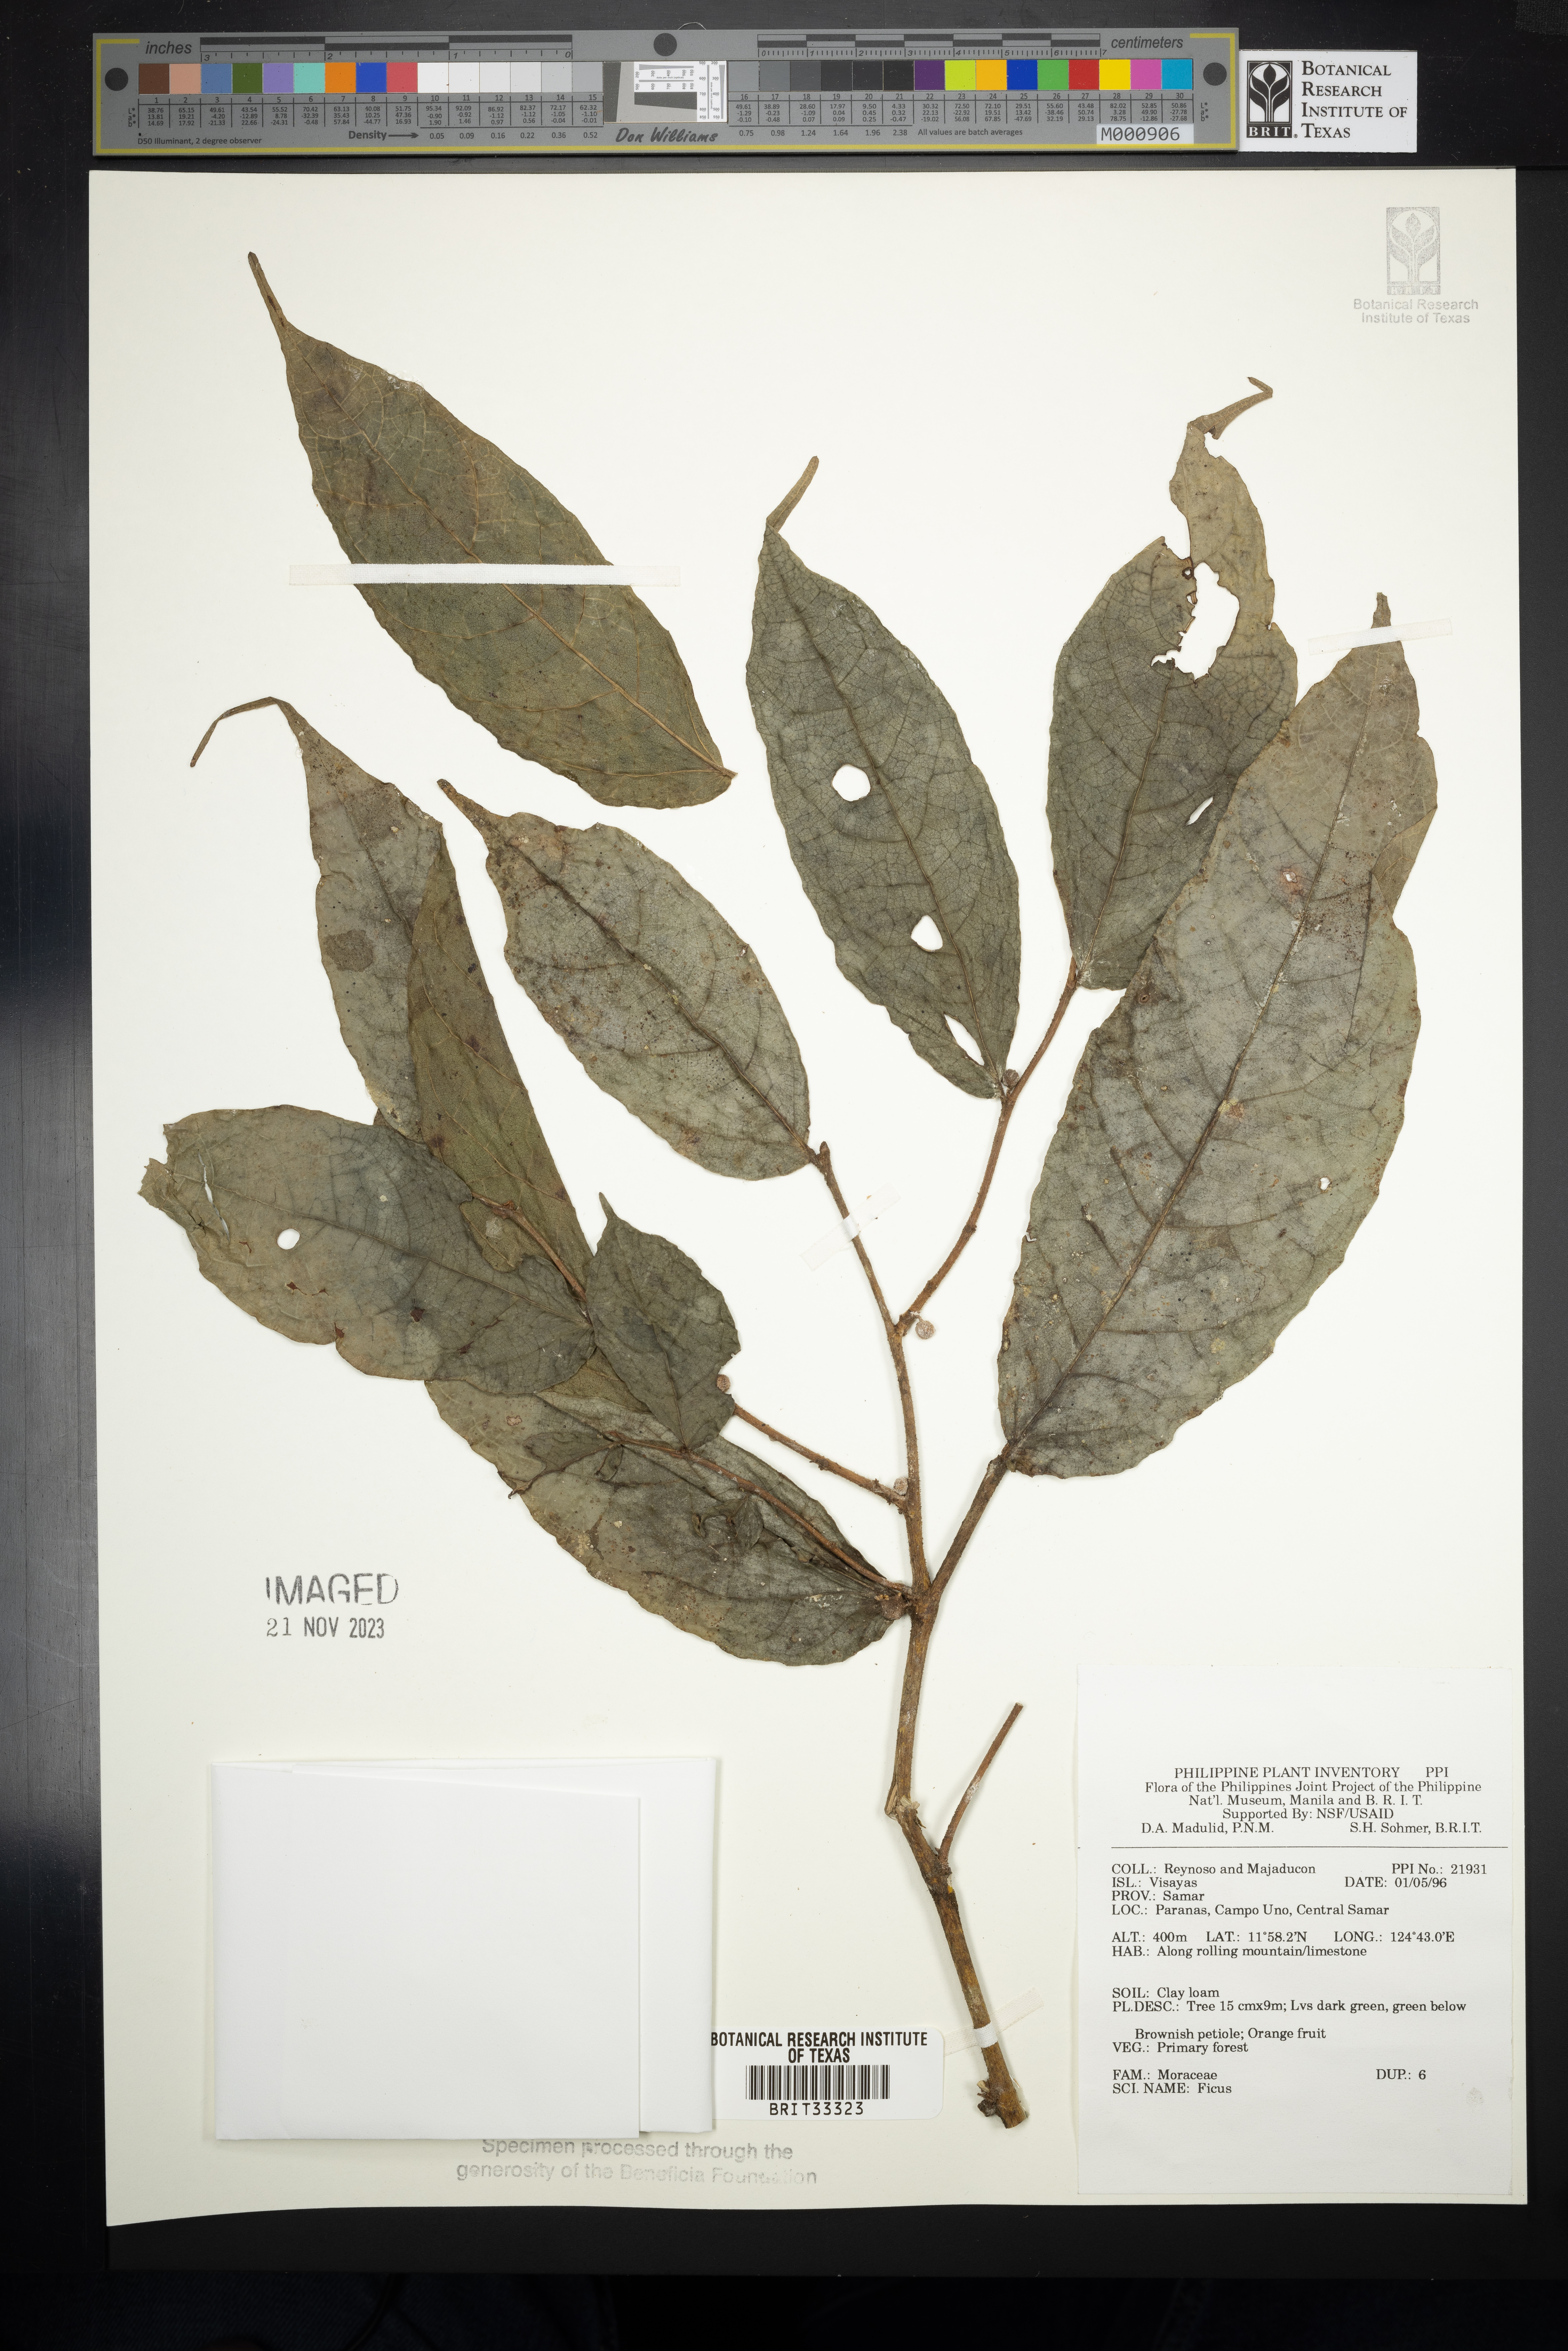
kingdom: Plantae
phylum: Tracheophyta
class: Magnoliopsida
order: Rosales
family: Moraceae
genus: Ficus
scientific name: Ficus
